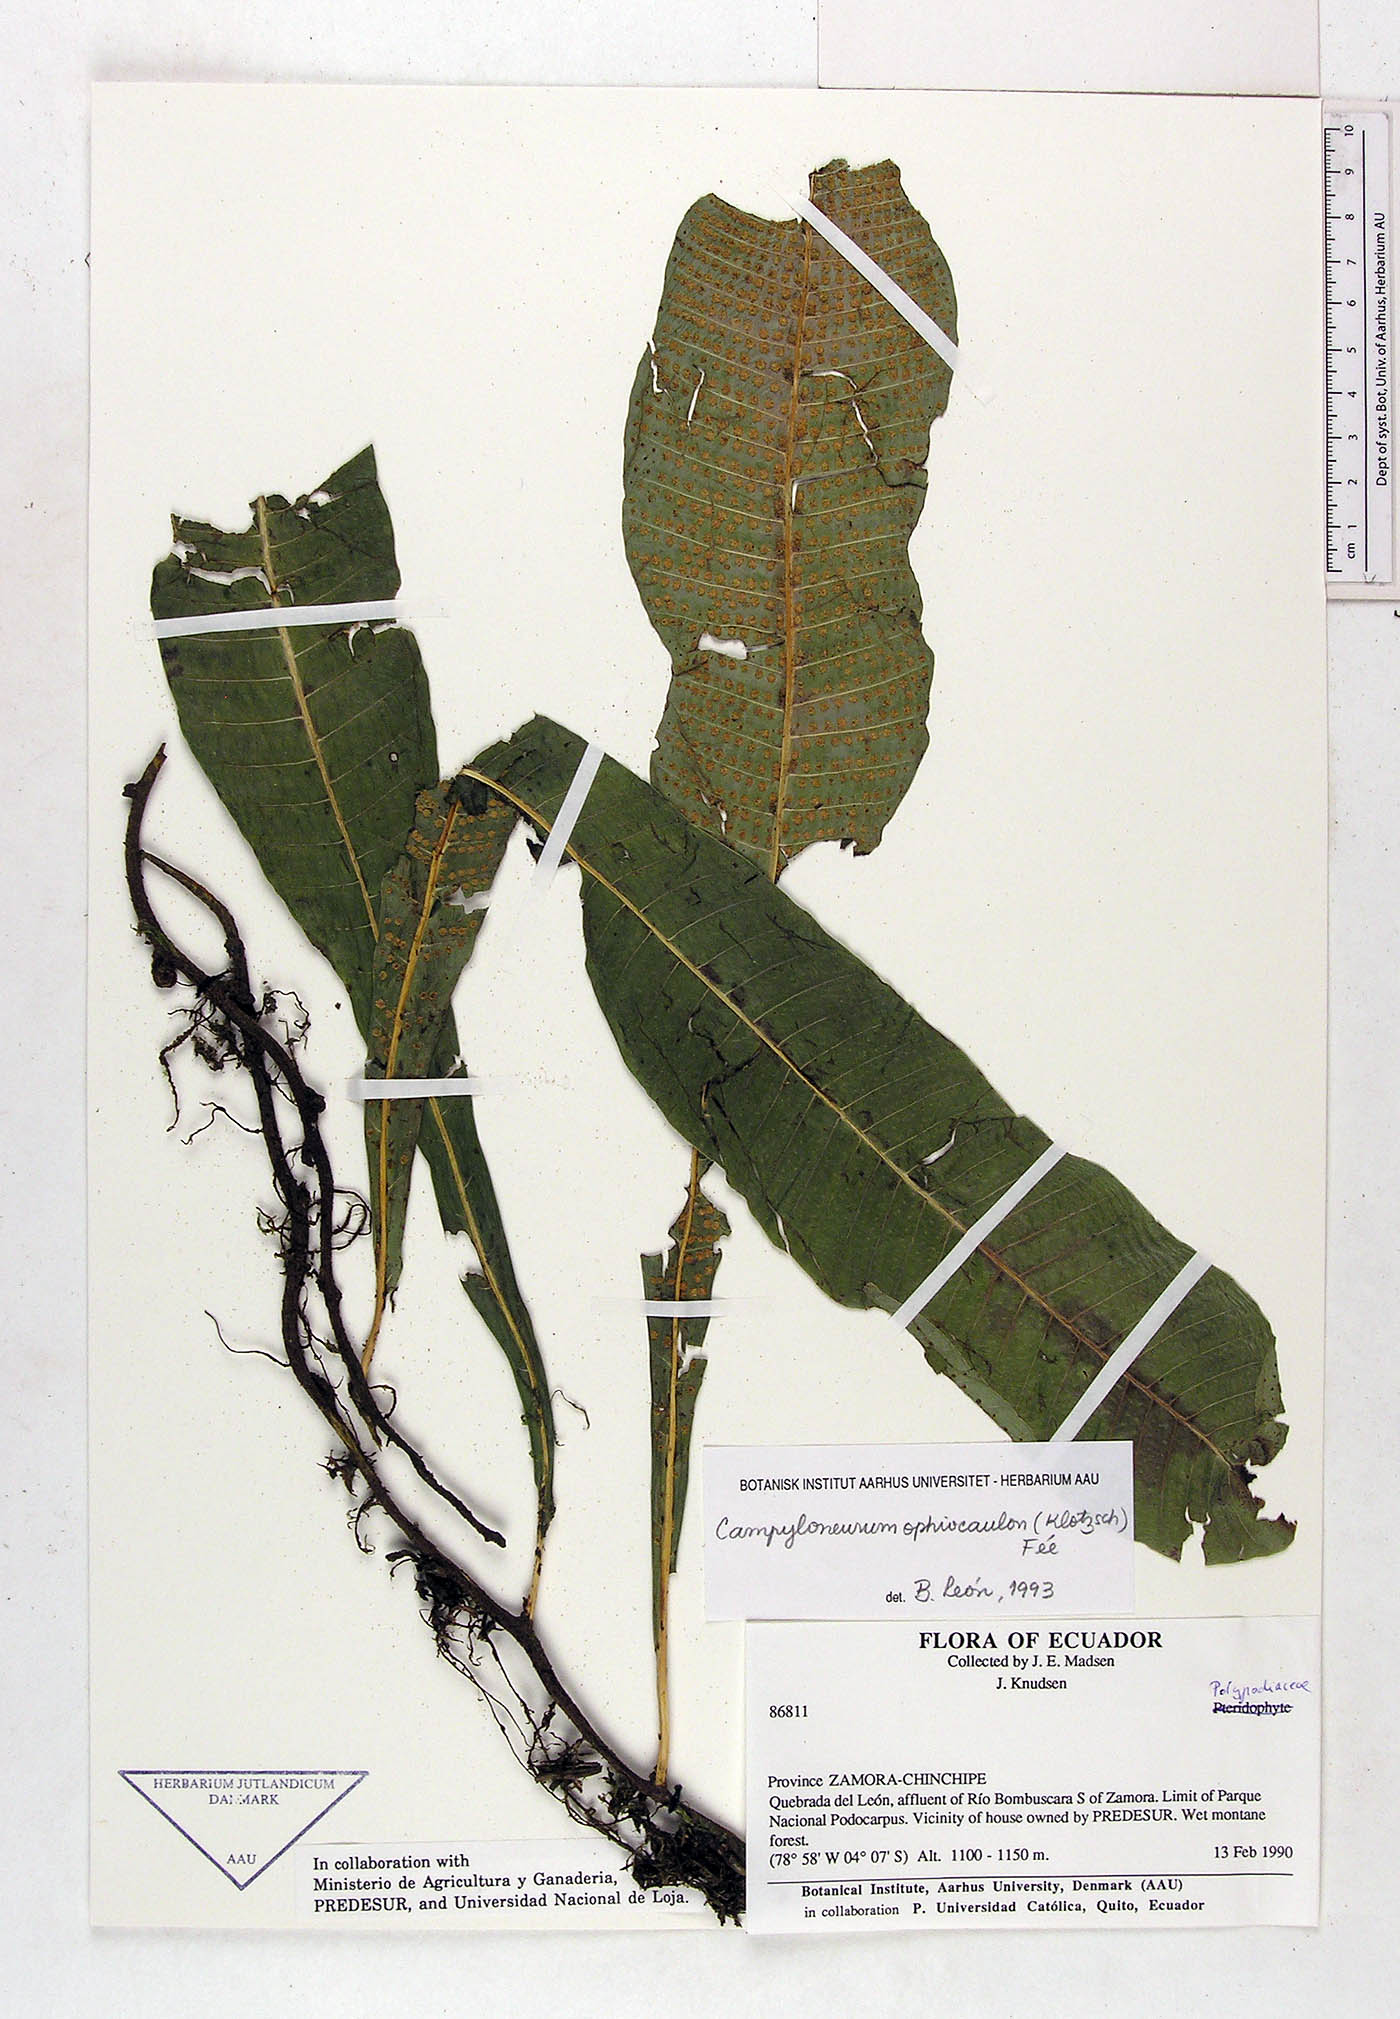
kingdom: Plantae
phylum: Tracheophyta
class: Polypodiopsida
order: Polypodiales
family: Polypodiaceae
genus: Campyloneurum
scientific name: Campyloneurum ophiocaulon
